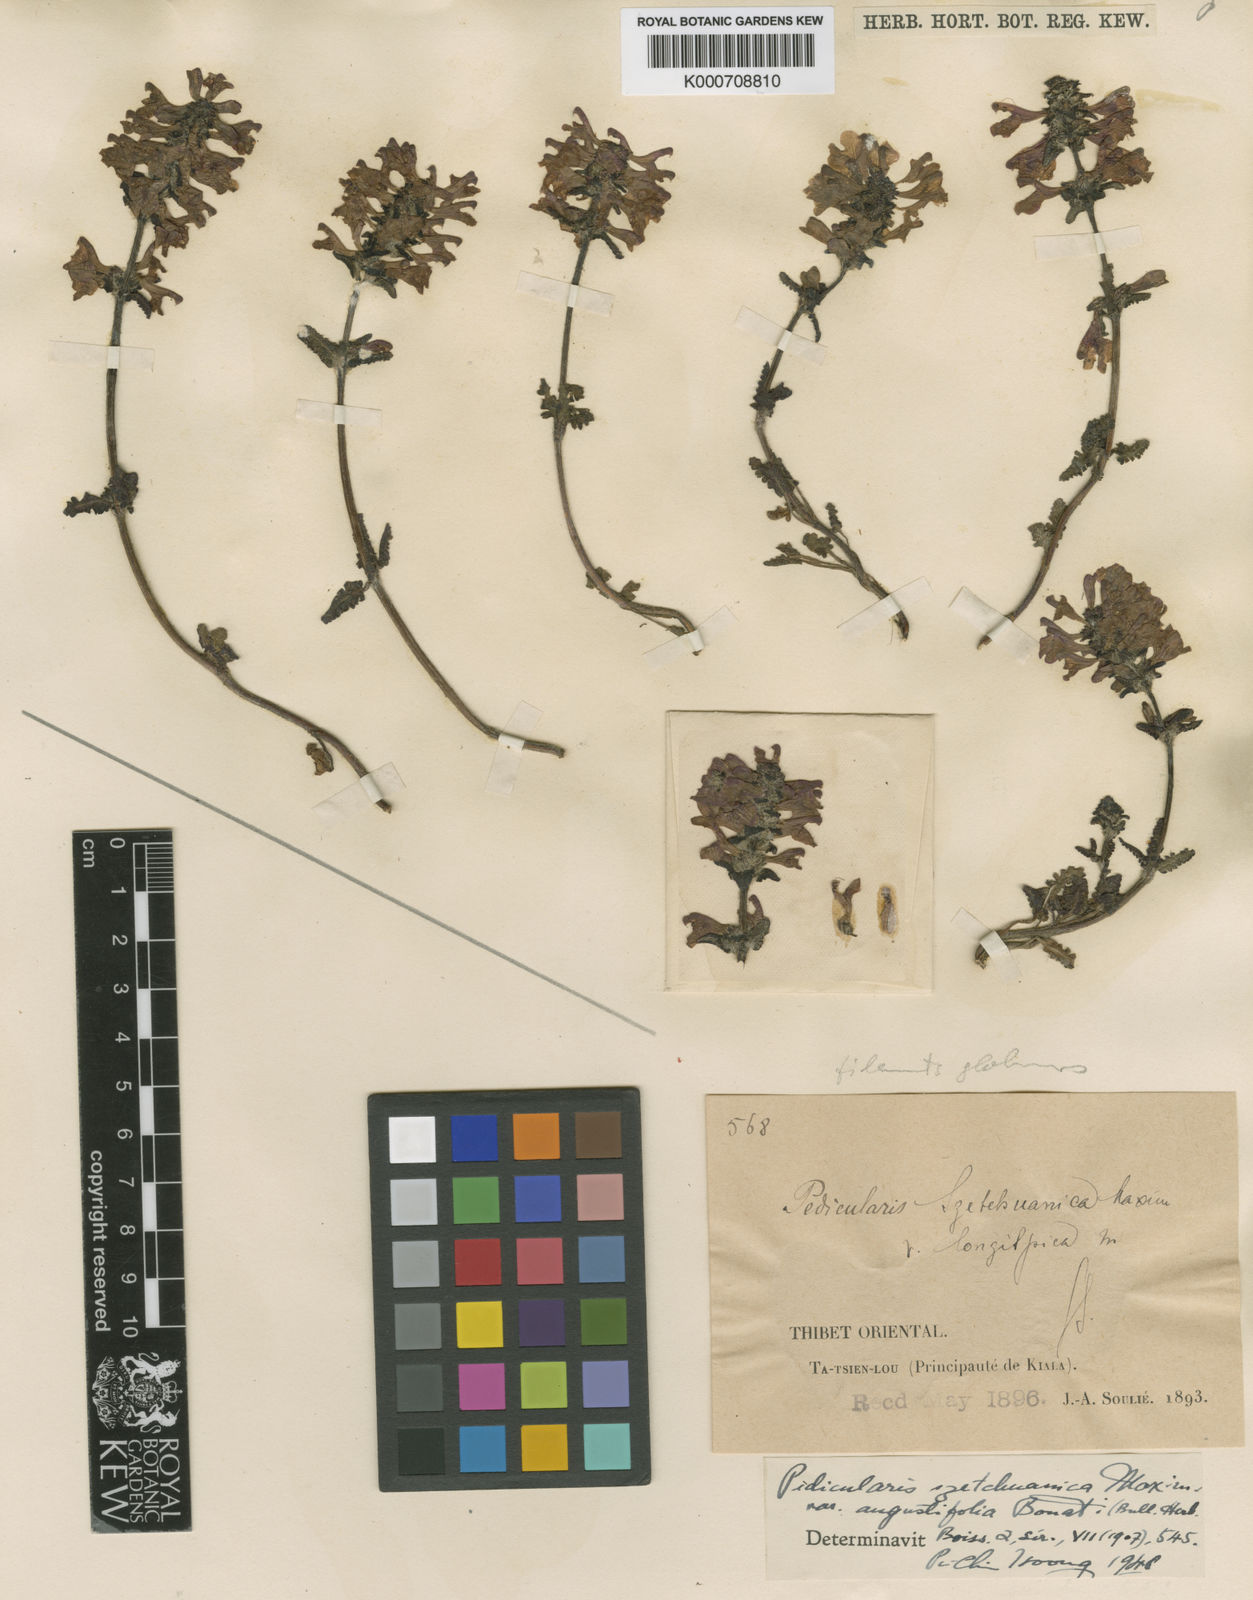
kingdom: Plantae
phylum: Tracheophyta
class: Magnoliopsida
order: Lamiales
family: Orobanchaceae
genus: Pedicularis
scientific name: Pedicularis szetschuanica
